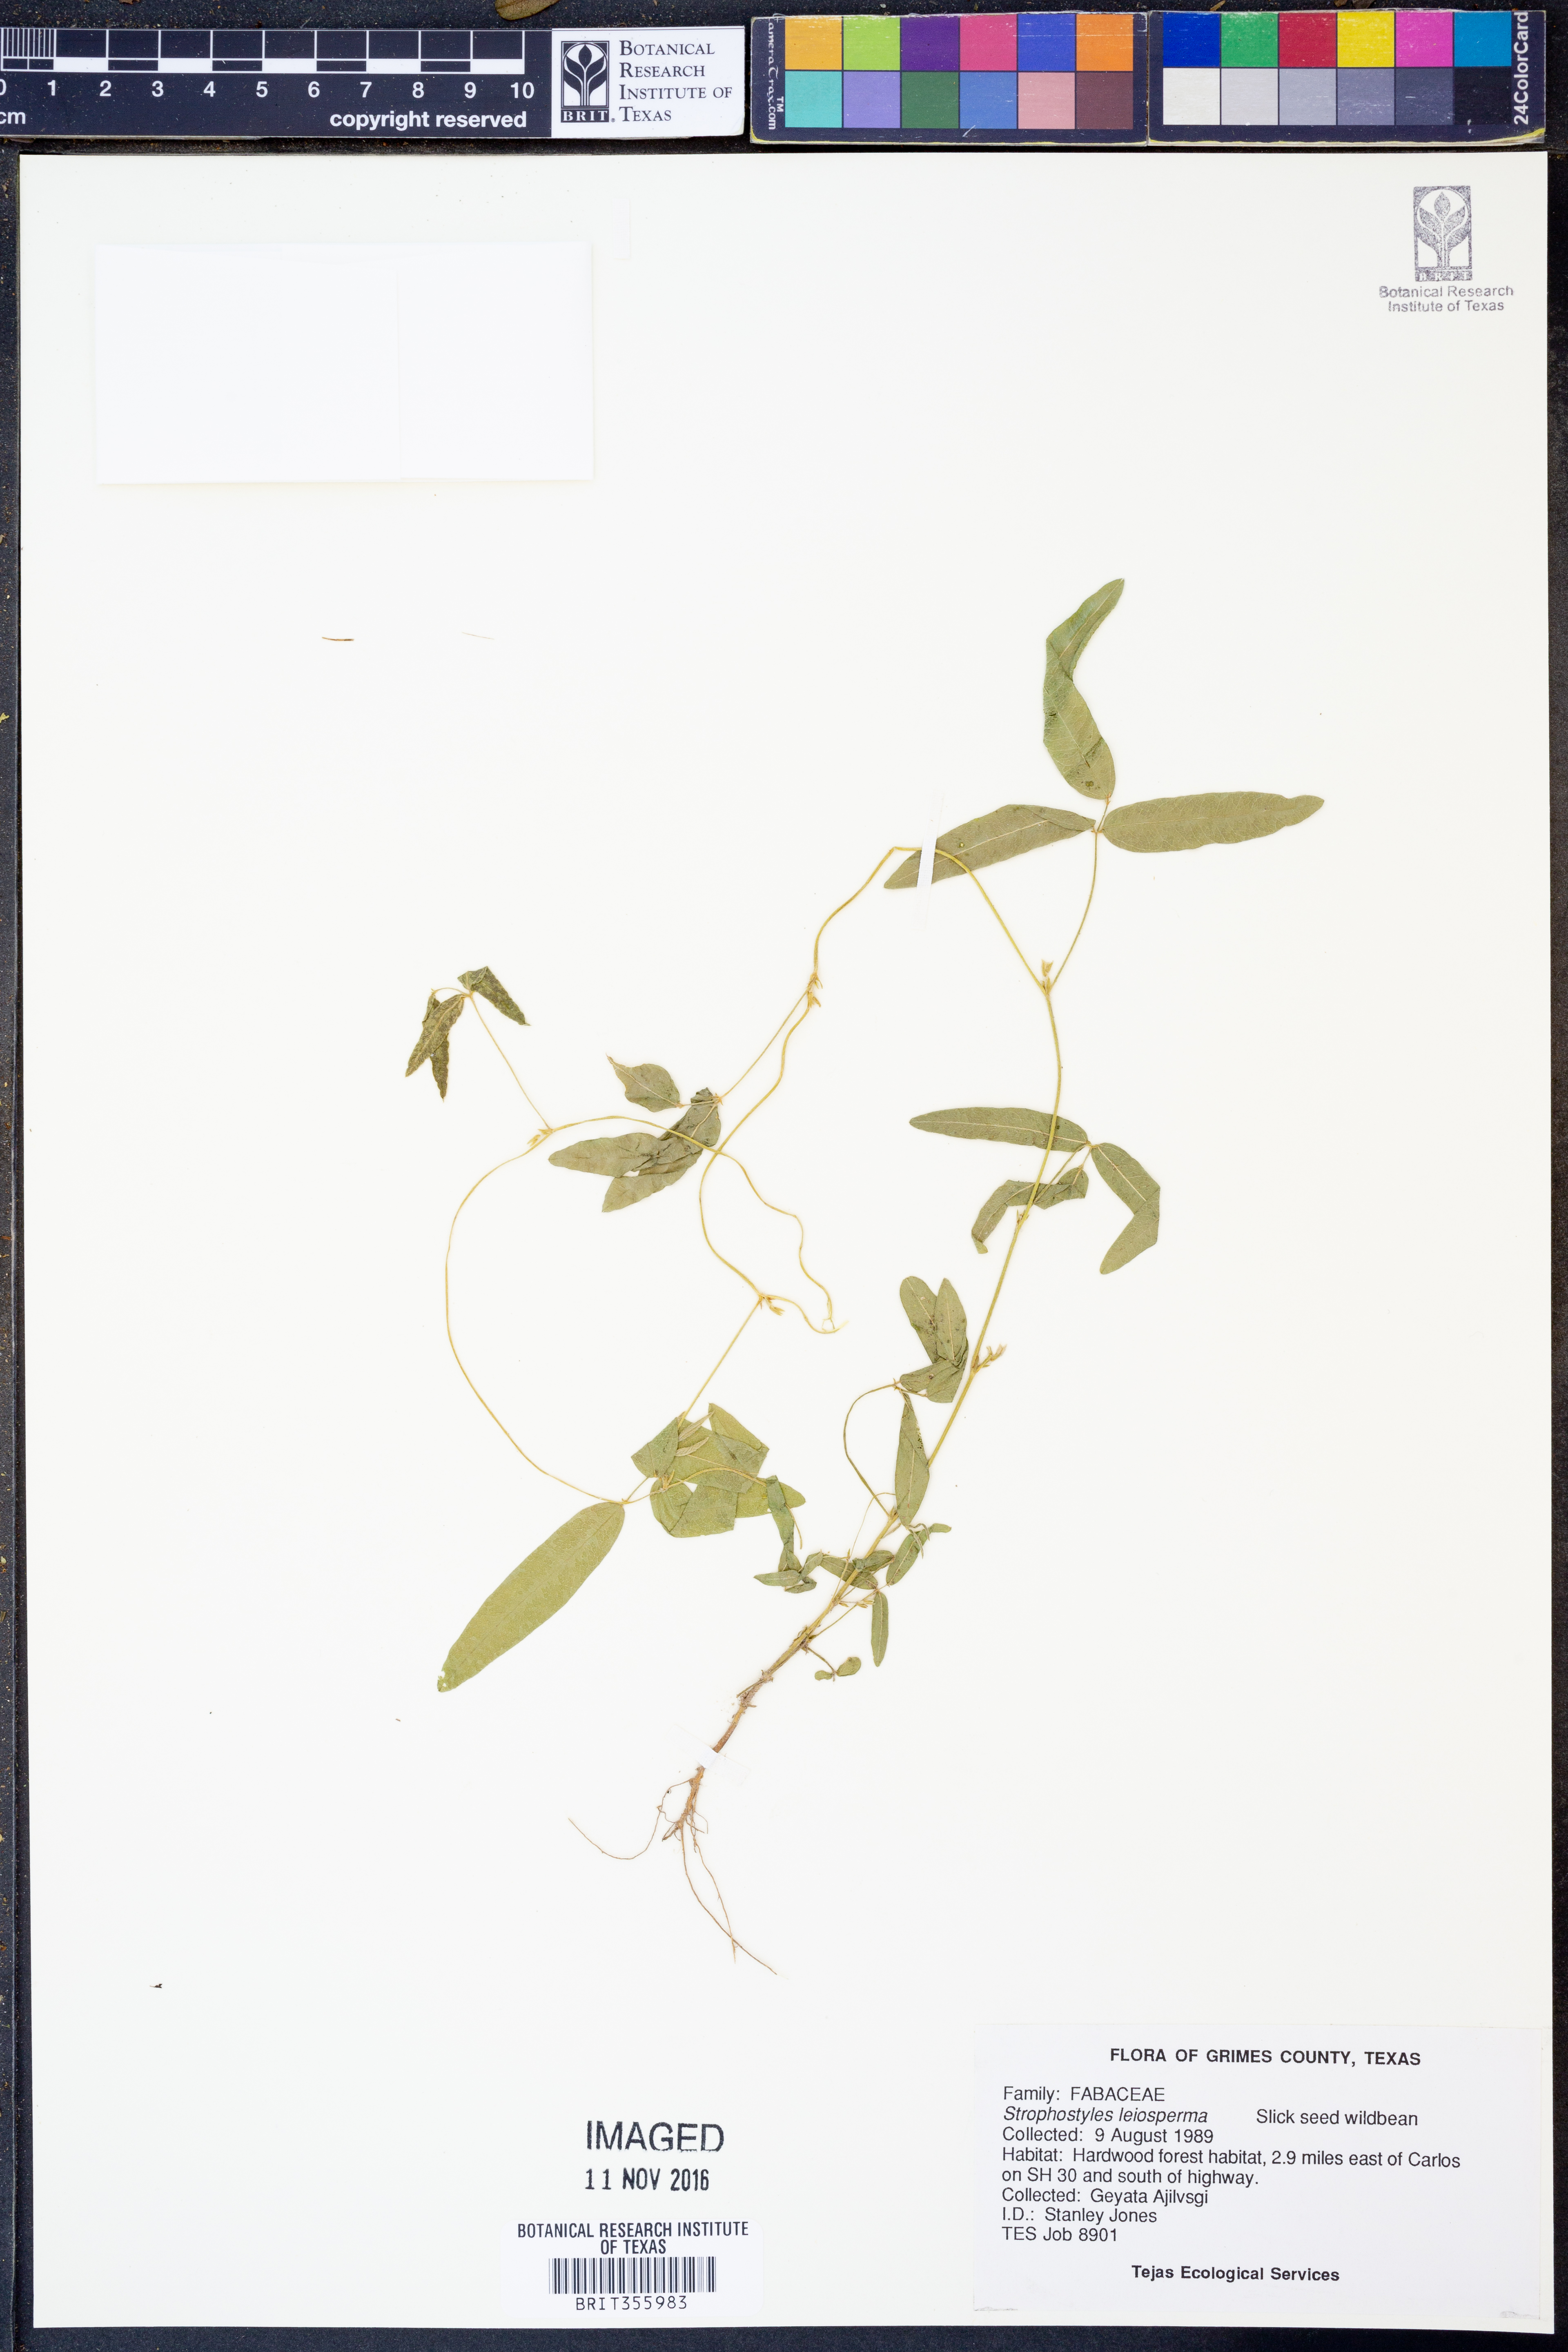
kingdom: Plantae
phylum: Tracheophyta
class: Magnoliopsida
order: Fabales
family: Fabaceae
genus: Strophostyles
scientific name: Strophostyles leiosperma
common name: Smooth-seed wild bean
